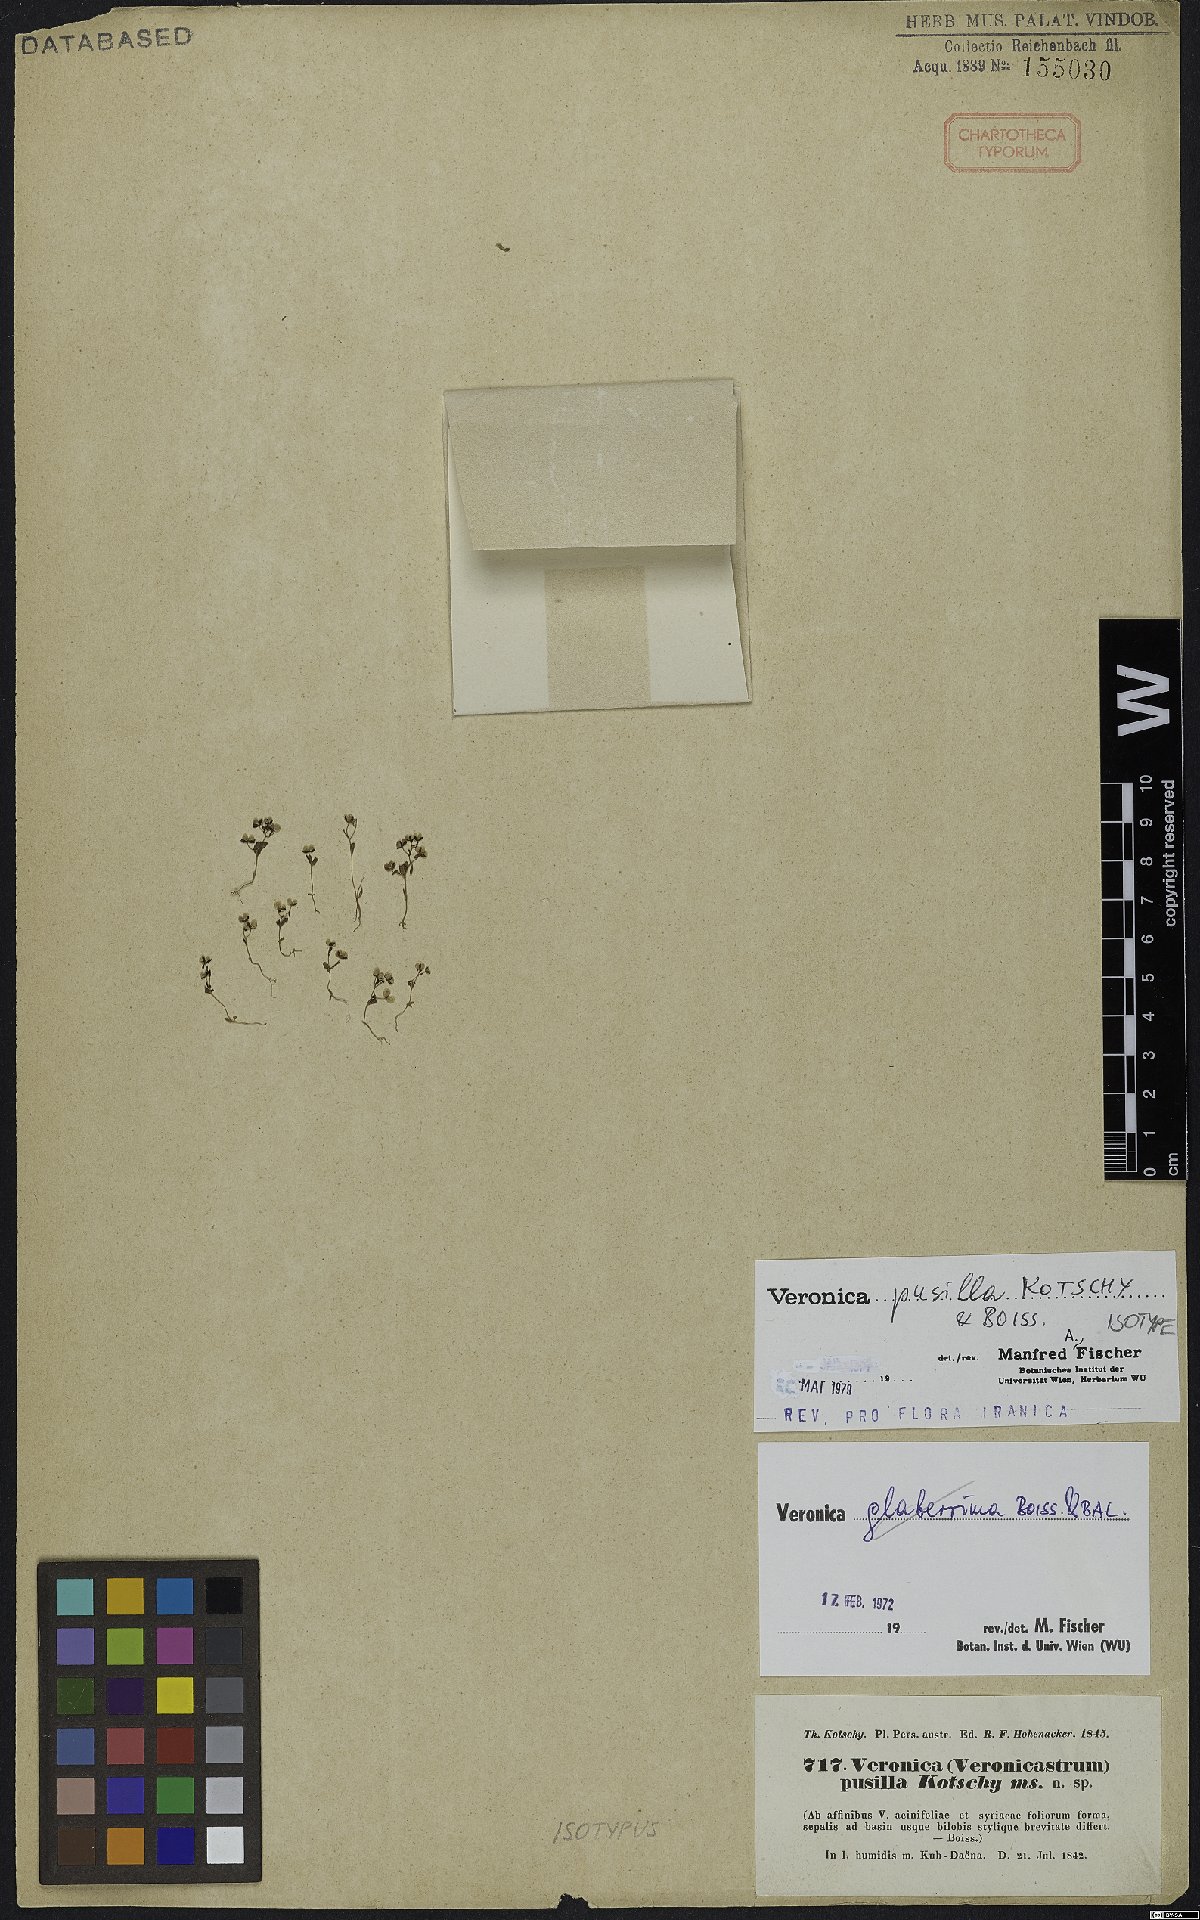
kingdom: Plantae
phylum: Tracheophyta
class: Magnoliopsida
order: Lamiales
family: Plantaginaceae
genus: Veronica
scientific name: Veronica pusilla
